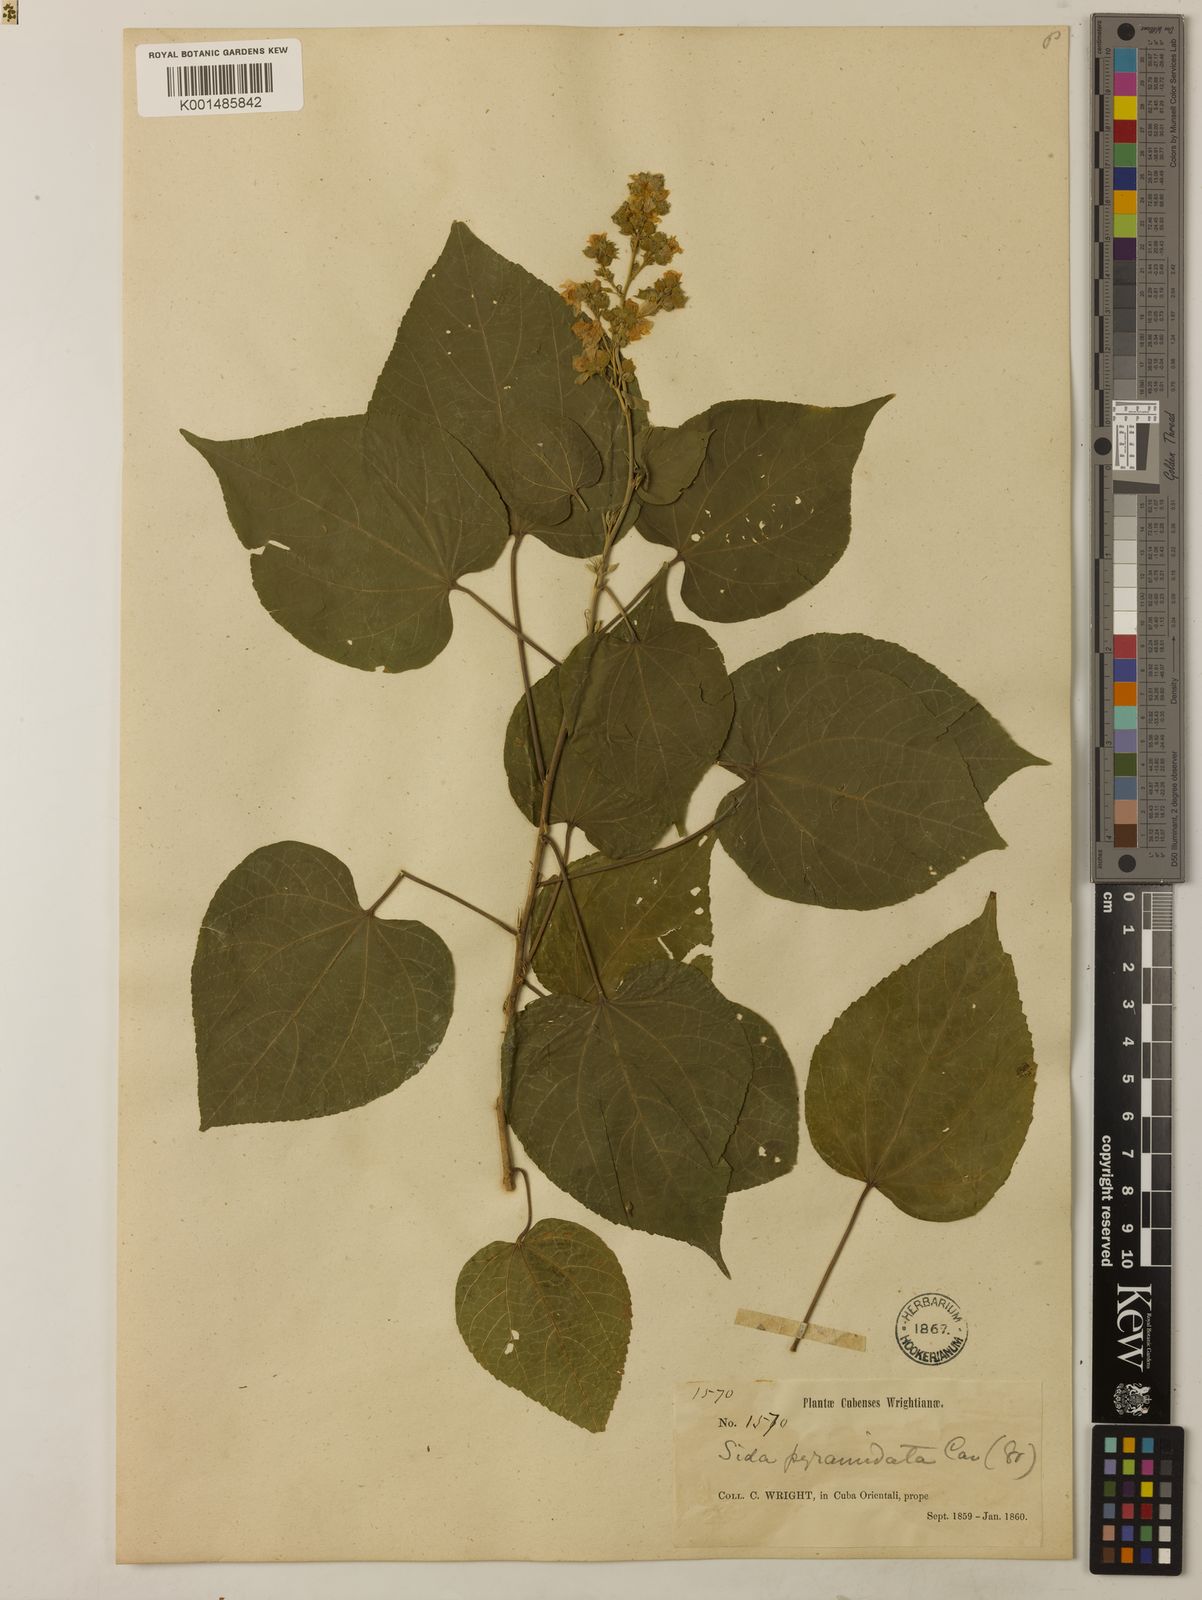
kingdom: Plantae
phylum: Tracheophyta
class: Magnoliopsida
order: Malvales
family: Malvaceae
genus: Allosidastrum
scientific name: Allosidastrum pyramidatum
